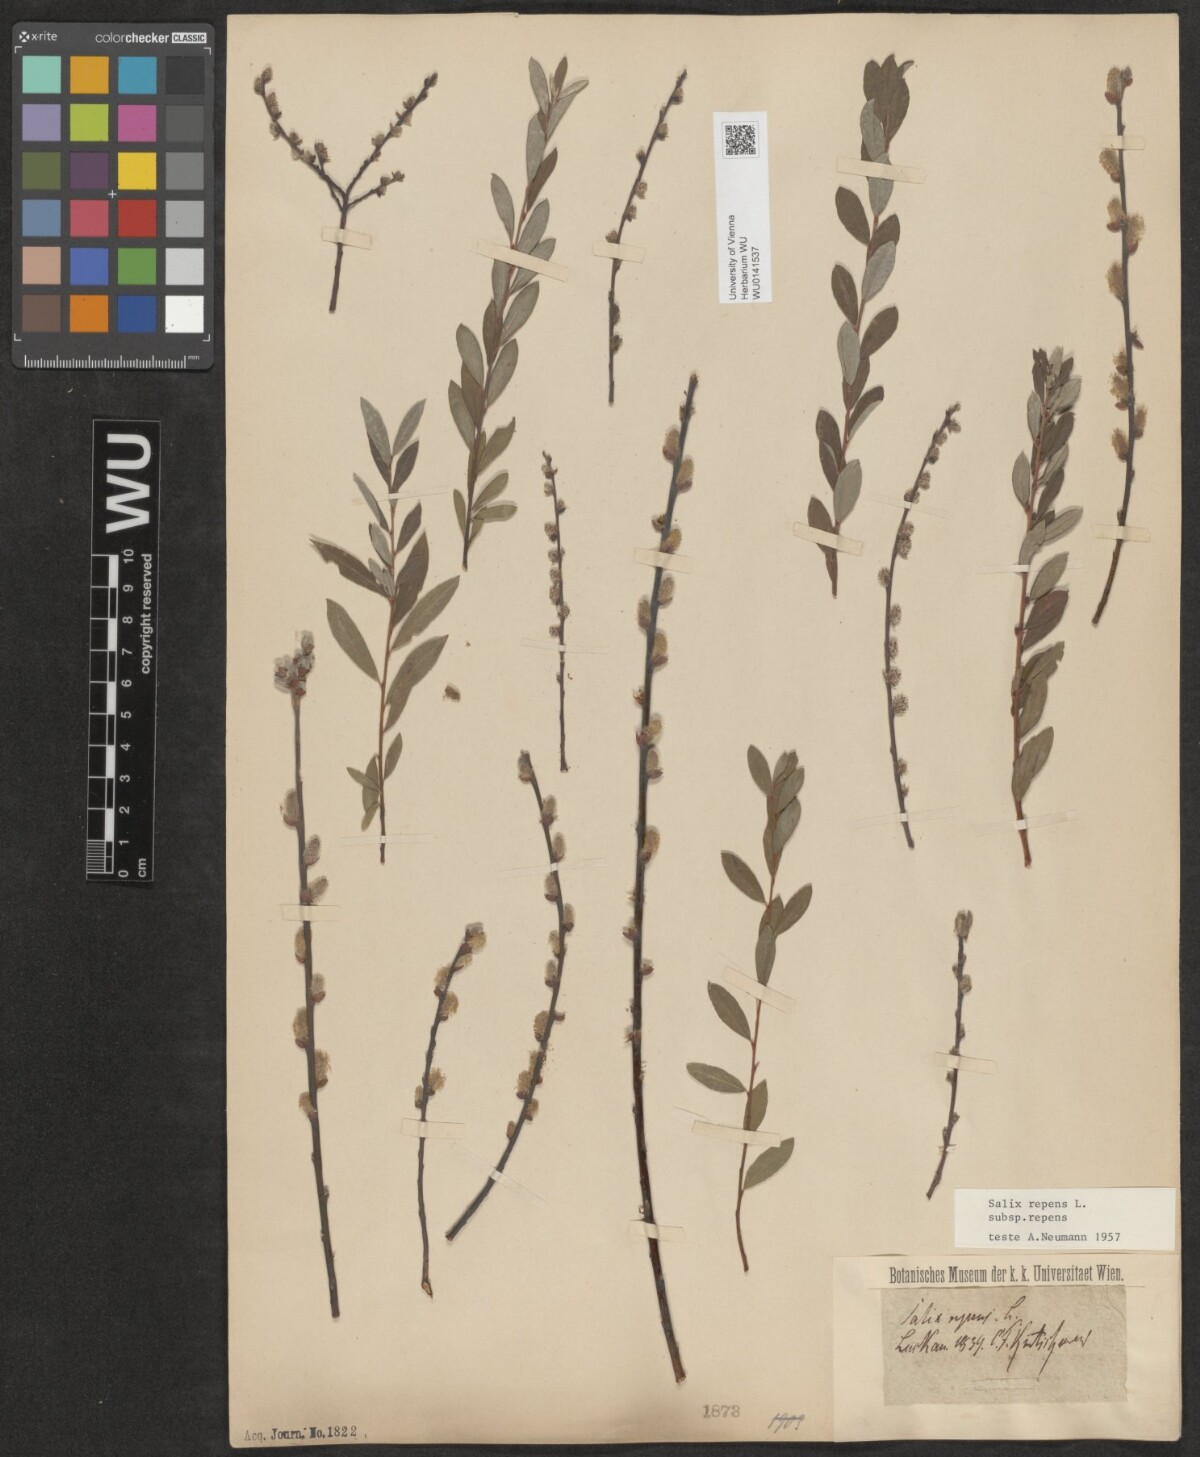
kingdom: Plantae
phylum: Tracheophyta
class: Magnoliopsida
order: Malpighiales
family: Salicaceae
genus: Salix
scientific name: Salix repens
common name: Creeping willow
